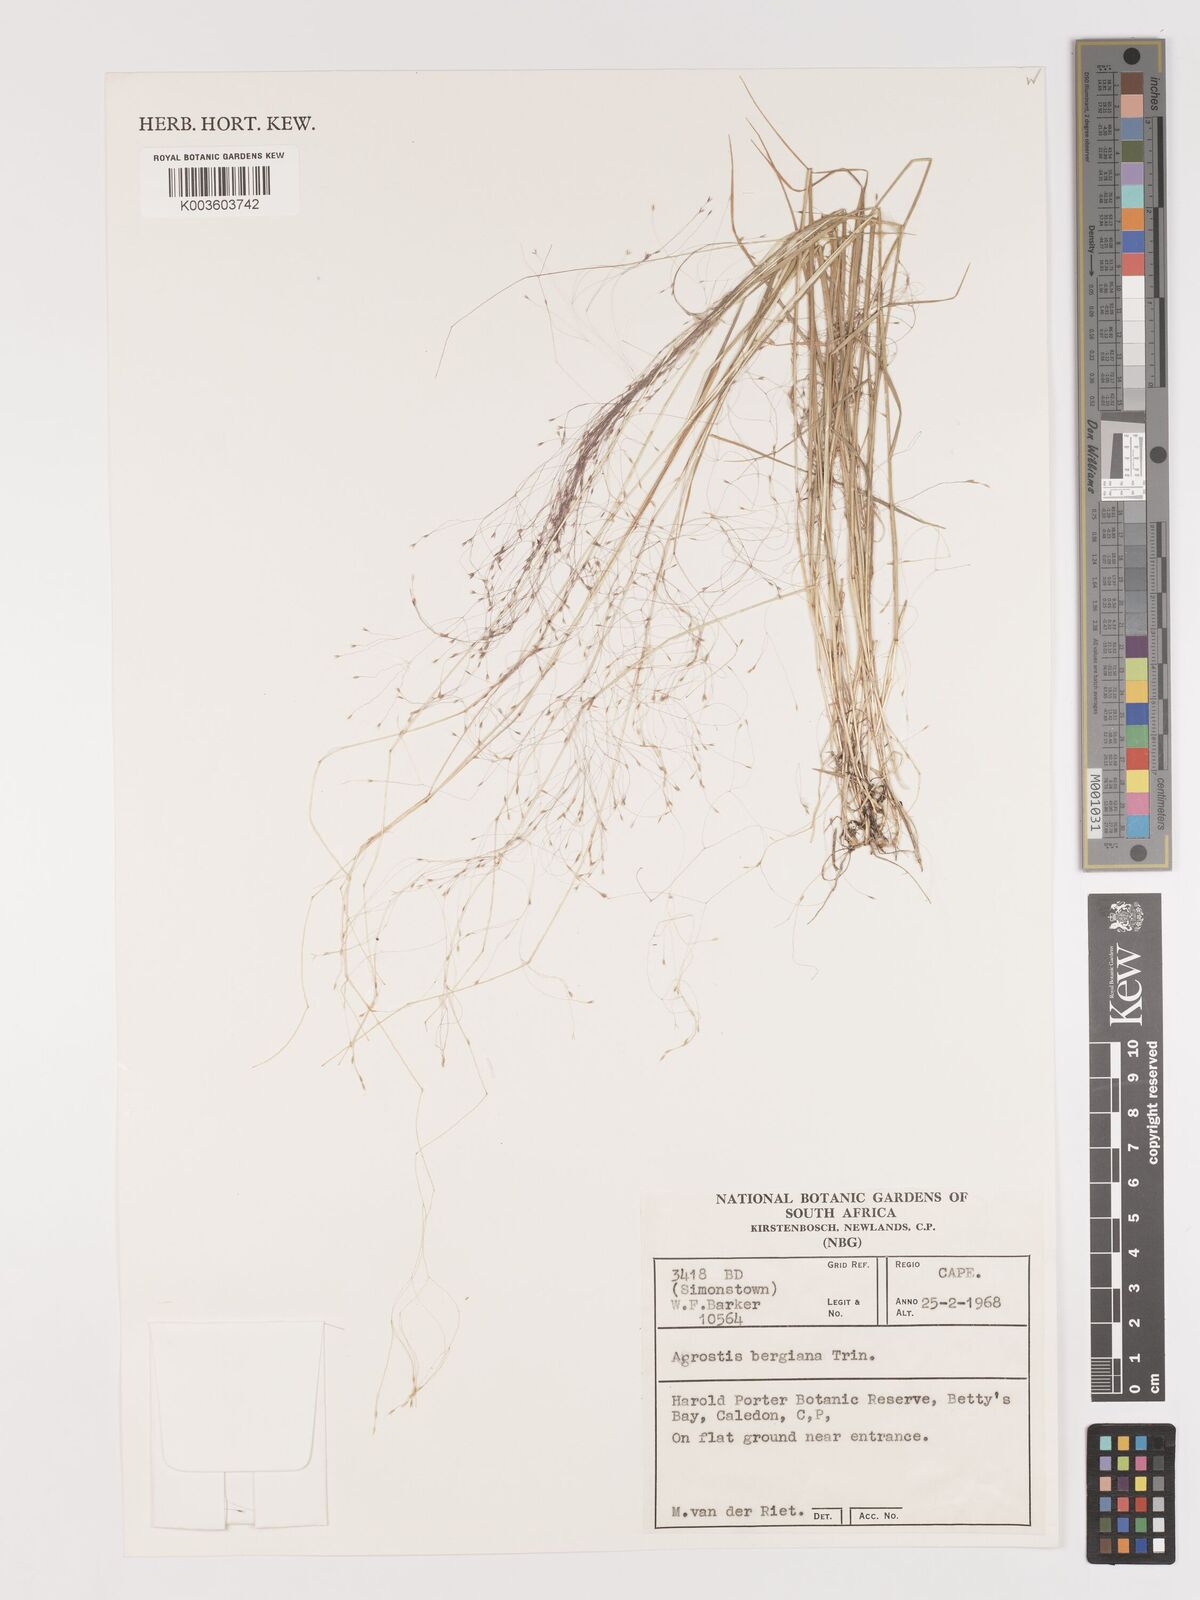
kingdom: Plantae
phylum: Tracheophyta
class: Liliopsida
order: Poales
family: Poaceae
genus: Agrostis
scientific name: Agrostis bergiana
